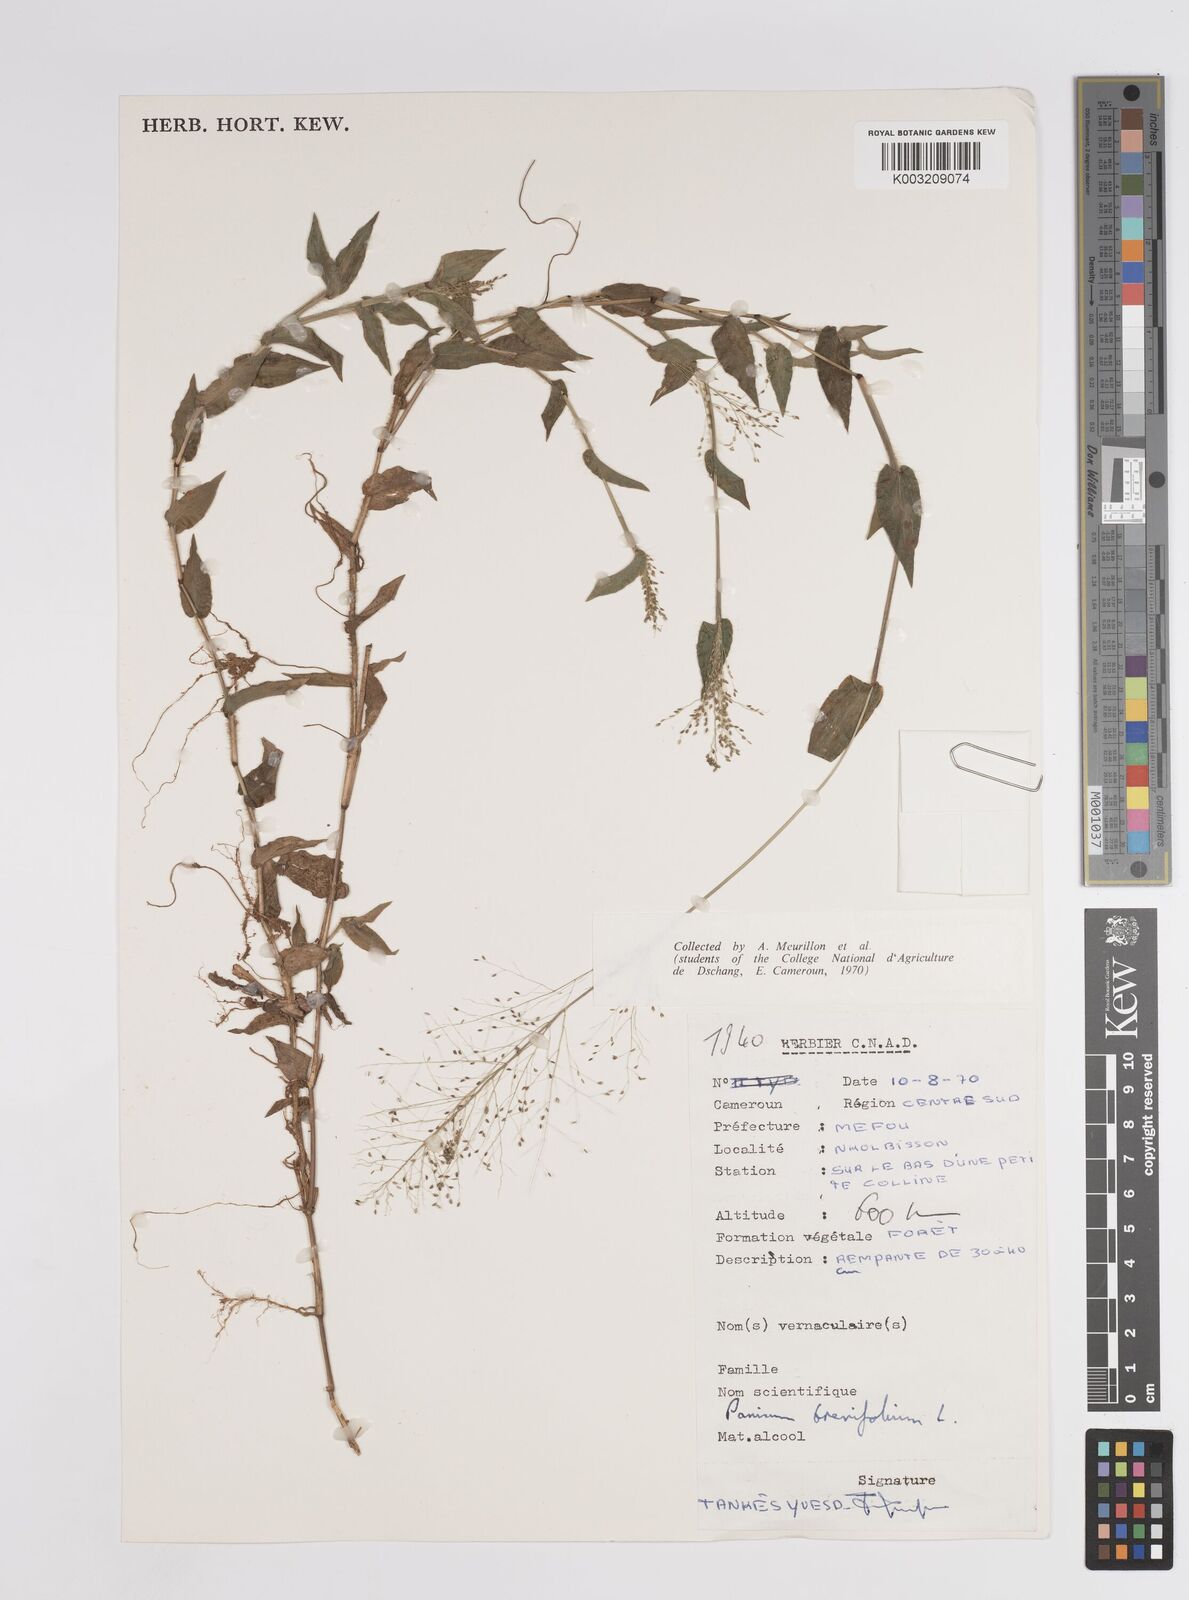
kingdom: Plantae
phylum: Tracheophyta
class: Liliopsida
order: Poales
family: Poaceae
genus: Panicum
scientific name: Panicum brevifolium
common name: Shortleaf panic grass
